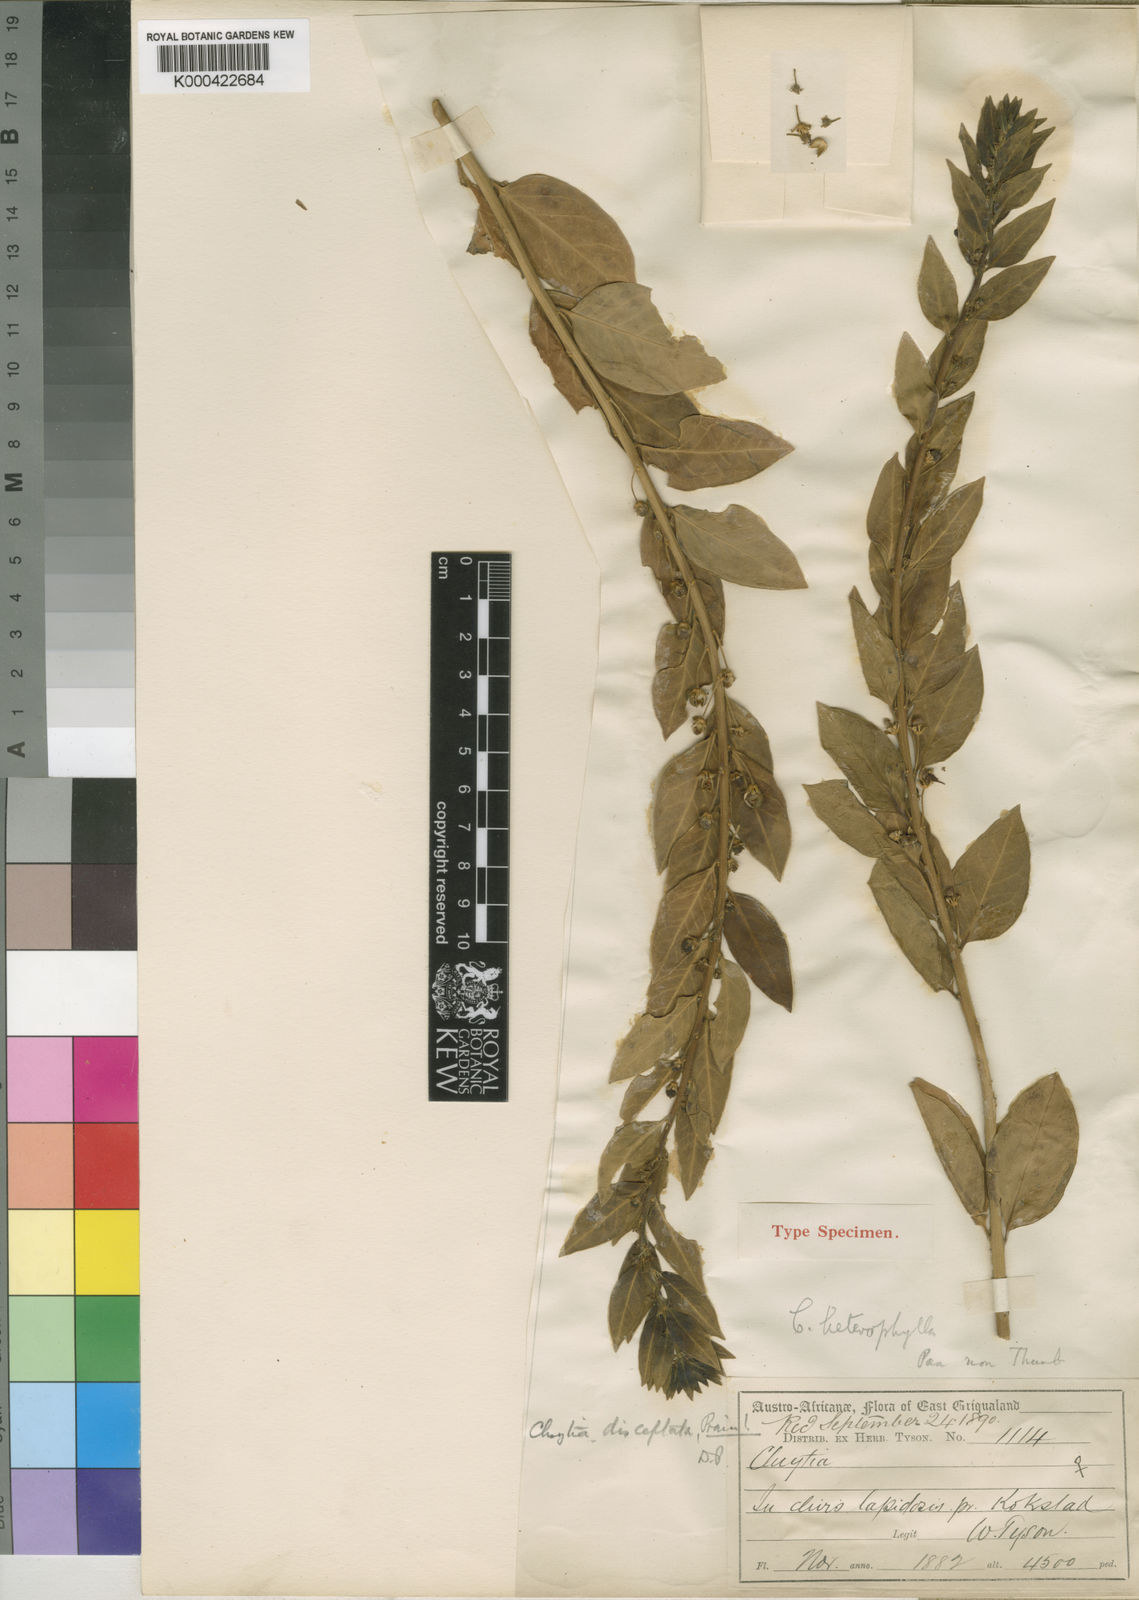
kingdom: Plantae
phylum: Tracheophyta
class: Magnoliopsida
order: Malpighiales
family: Peraceae
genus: Clutia
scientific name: Clutia disceptata
